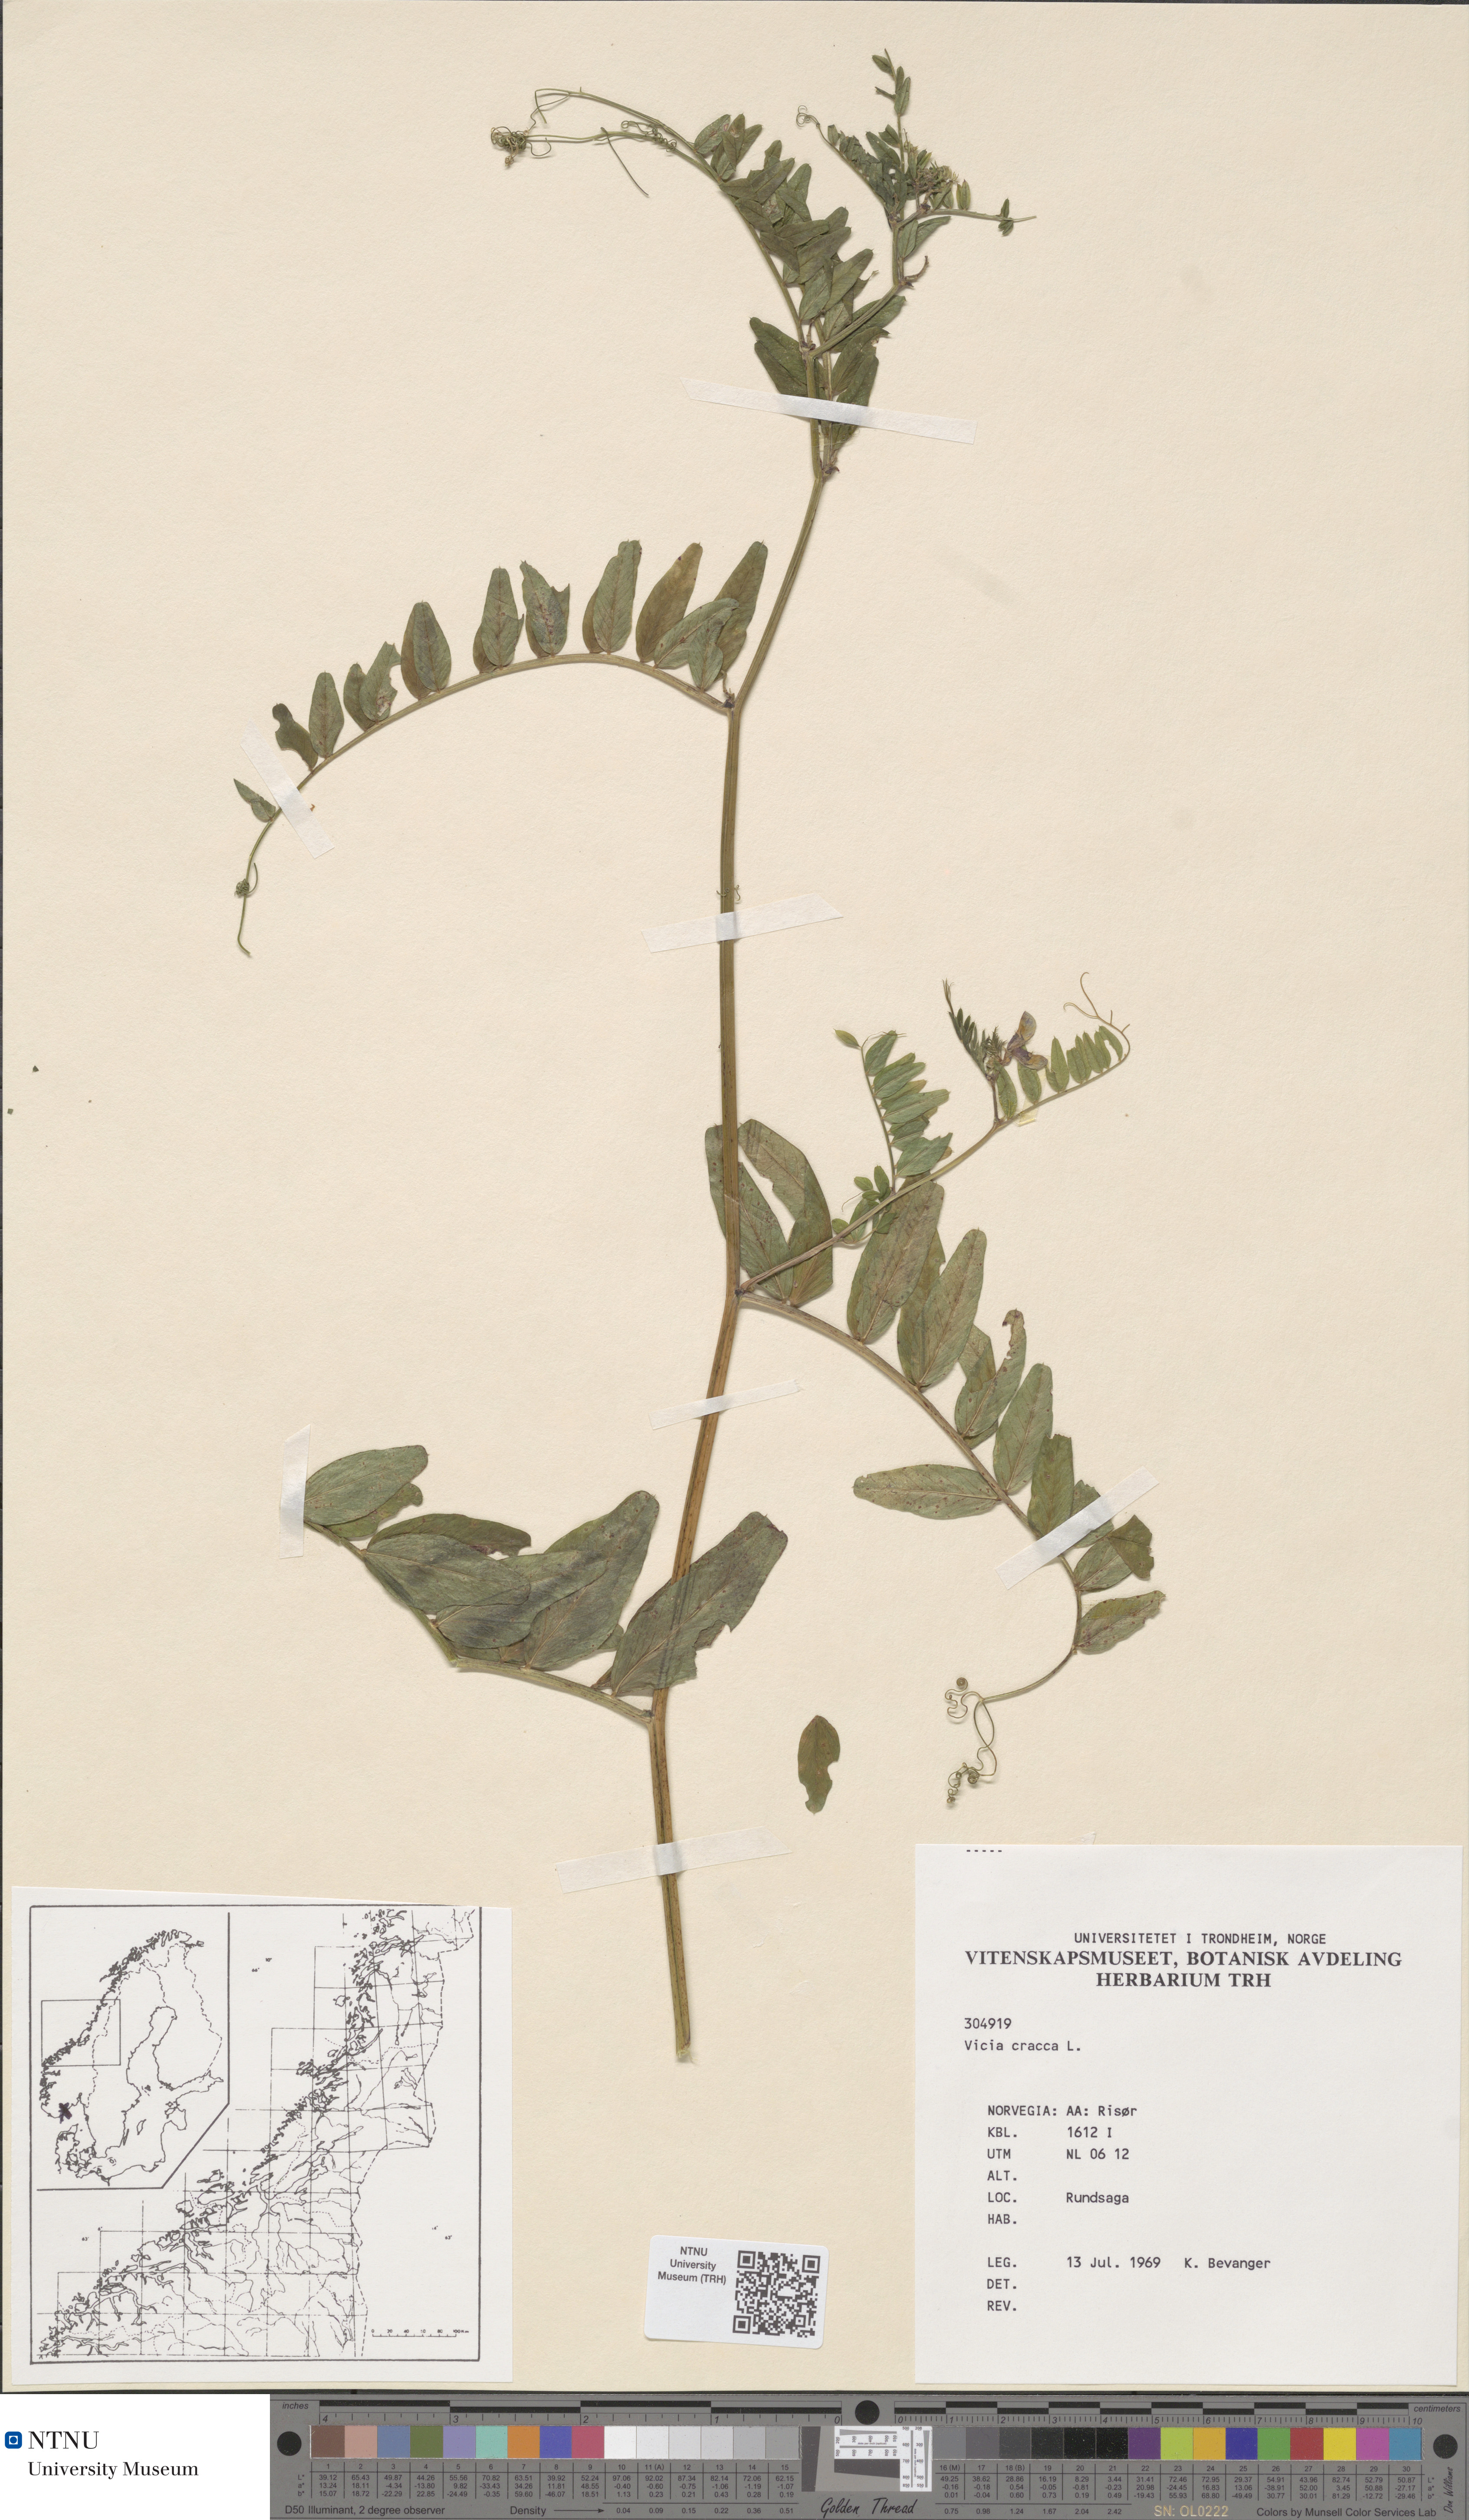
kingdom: Plantae
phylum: Tracheophyta
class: Magnoliopsida
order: Fabales
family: Fabaceae
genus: Vicia
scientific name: Vicia cracca
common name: Bird vetch
